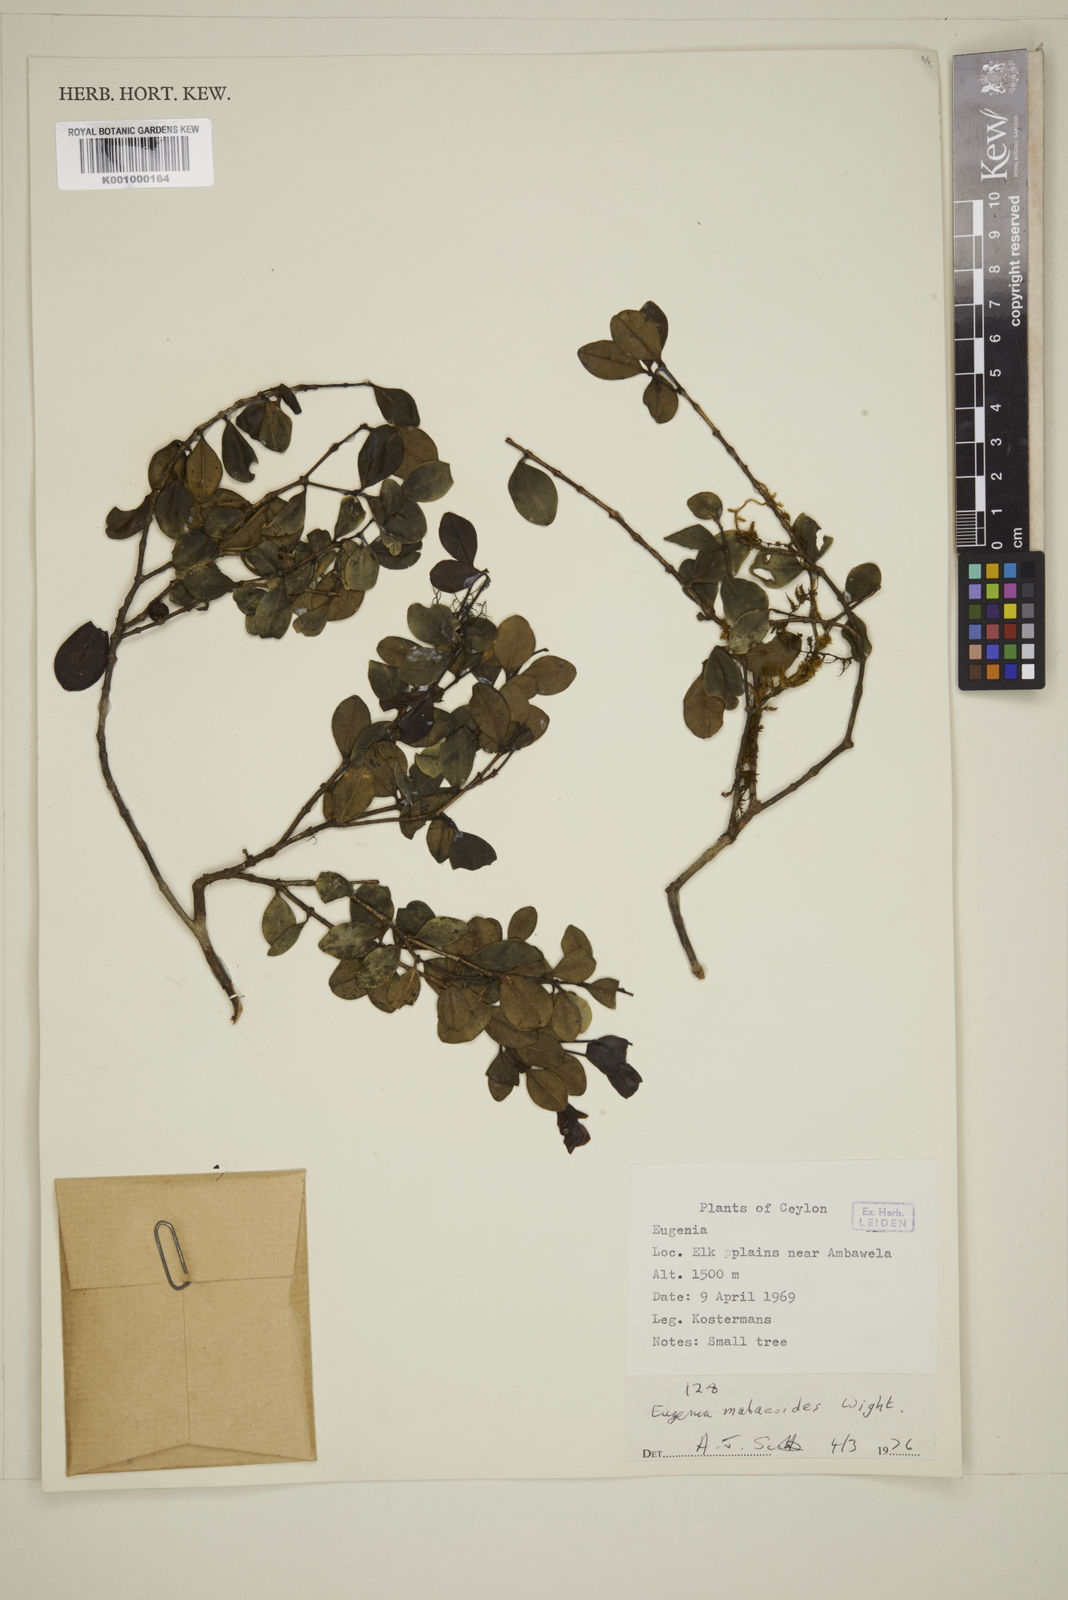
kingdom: Plantae
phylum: Tracheophyta
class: Magnoliopsida
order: Myrtales
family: Myrtaceae
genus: Eugenia
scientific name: Eugenia mabaeoides
